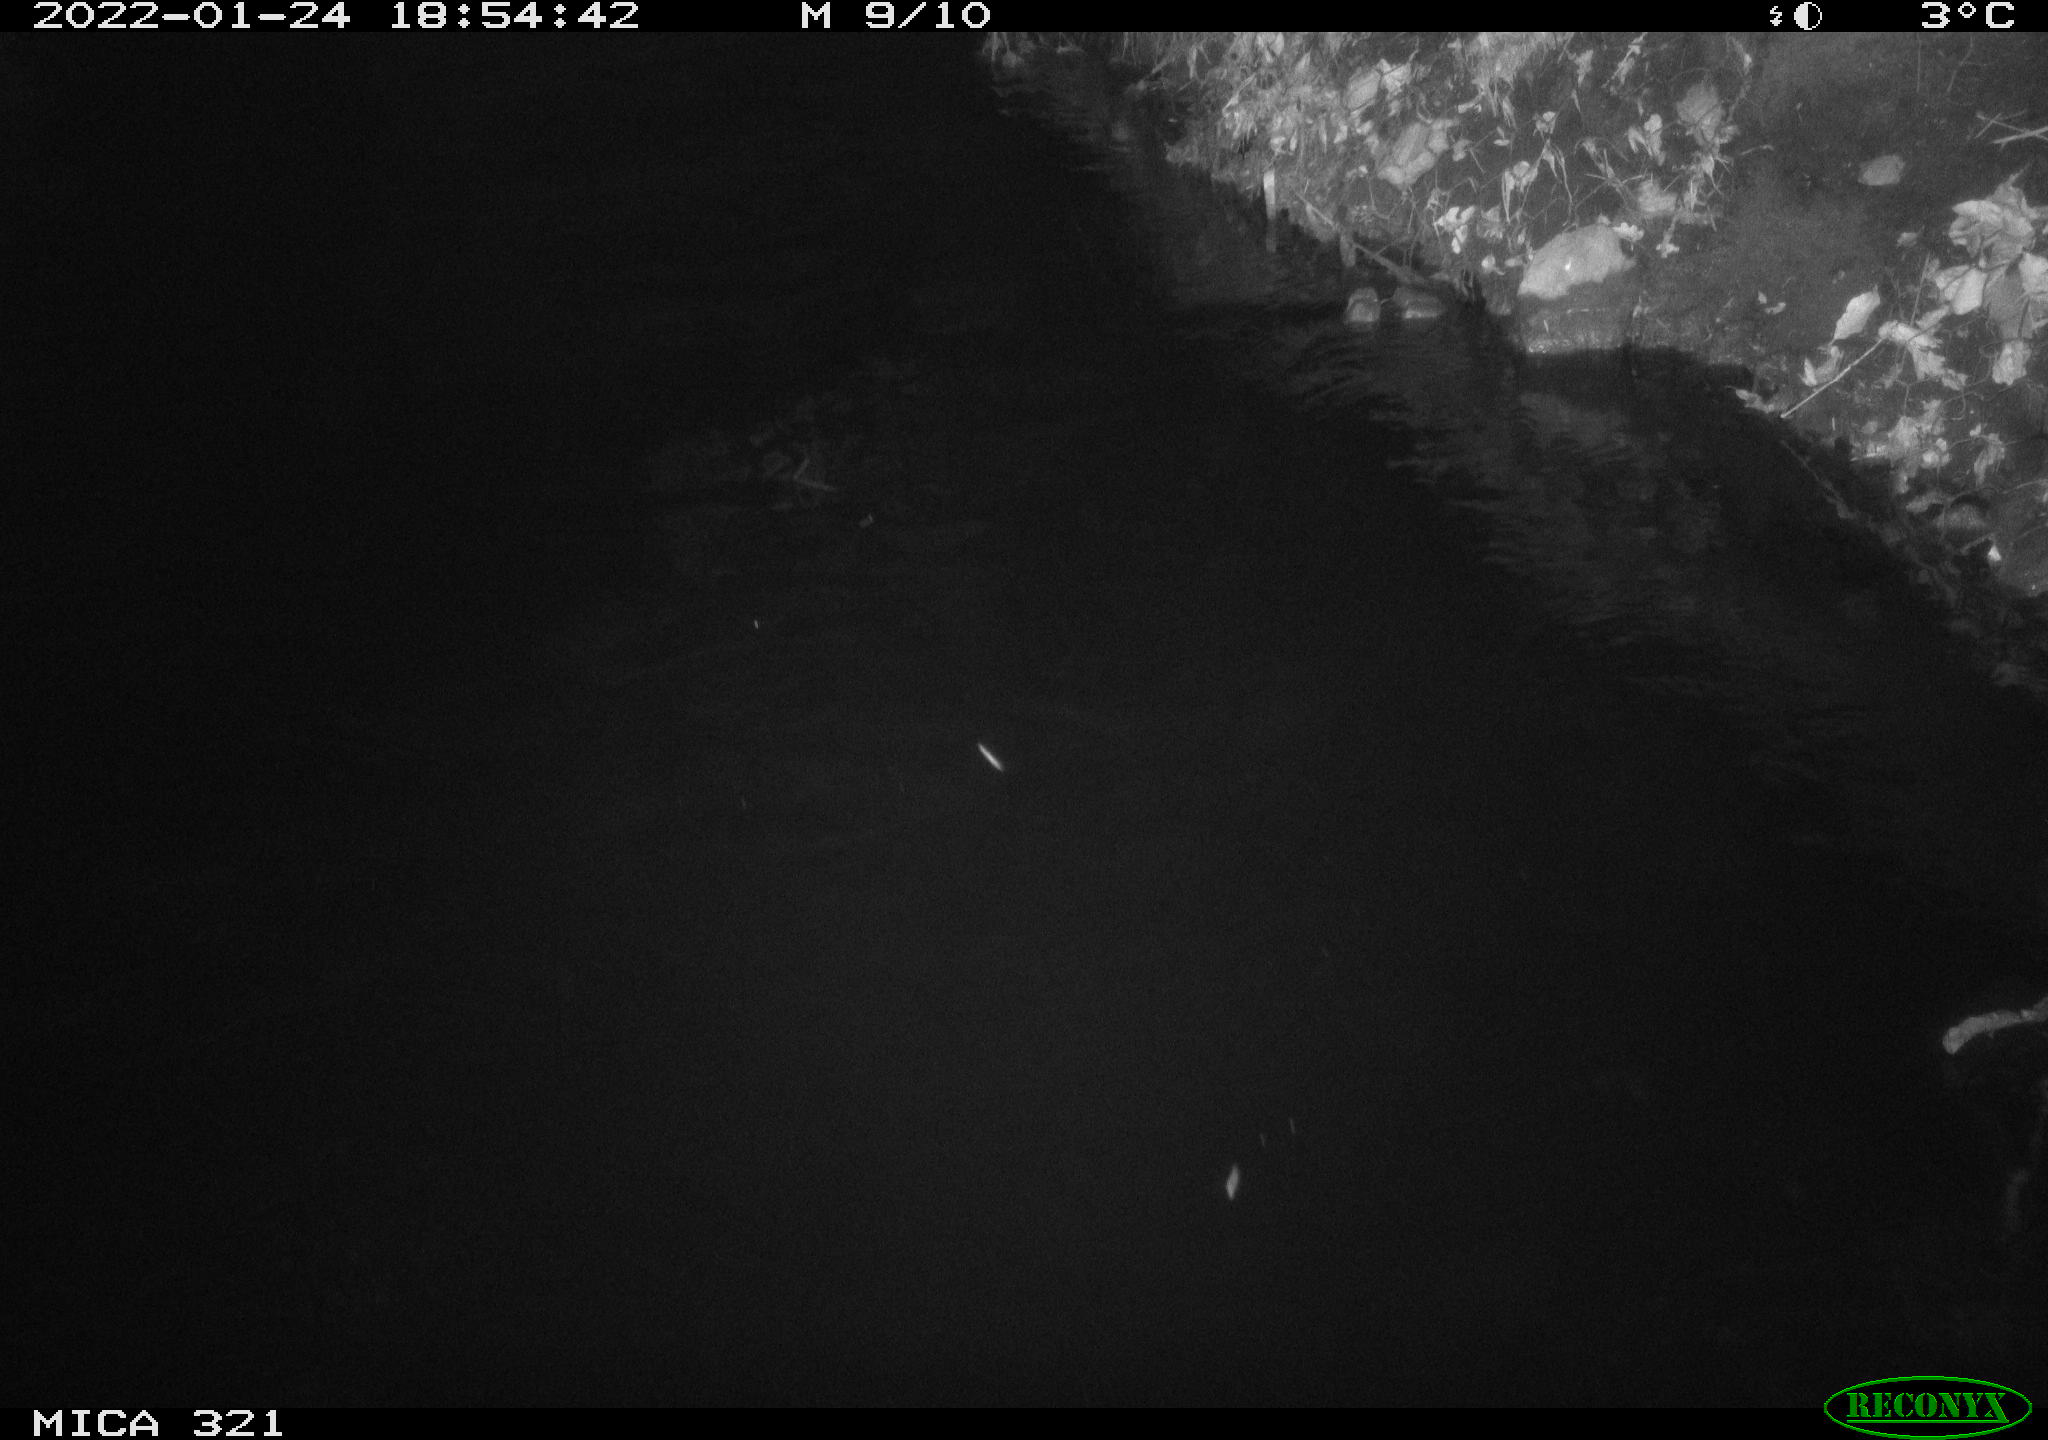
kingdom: Animalia
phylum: Chordata
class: Aves
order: Anseriformes
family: Anatidae
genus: Anas
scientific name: Anas
